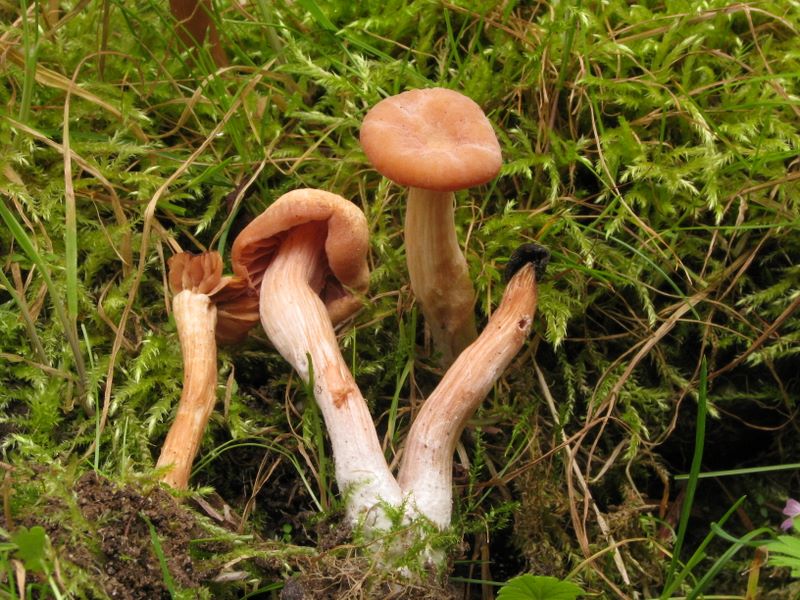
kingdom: Fungi
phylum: Basidiomycota
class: Agaricomycetes
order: Agaricales
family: Hydnangiaceae
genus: Laccaria
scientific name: Laccaria laccata
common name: rød ametysthat
